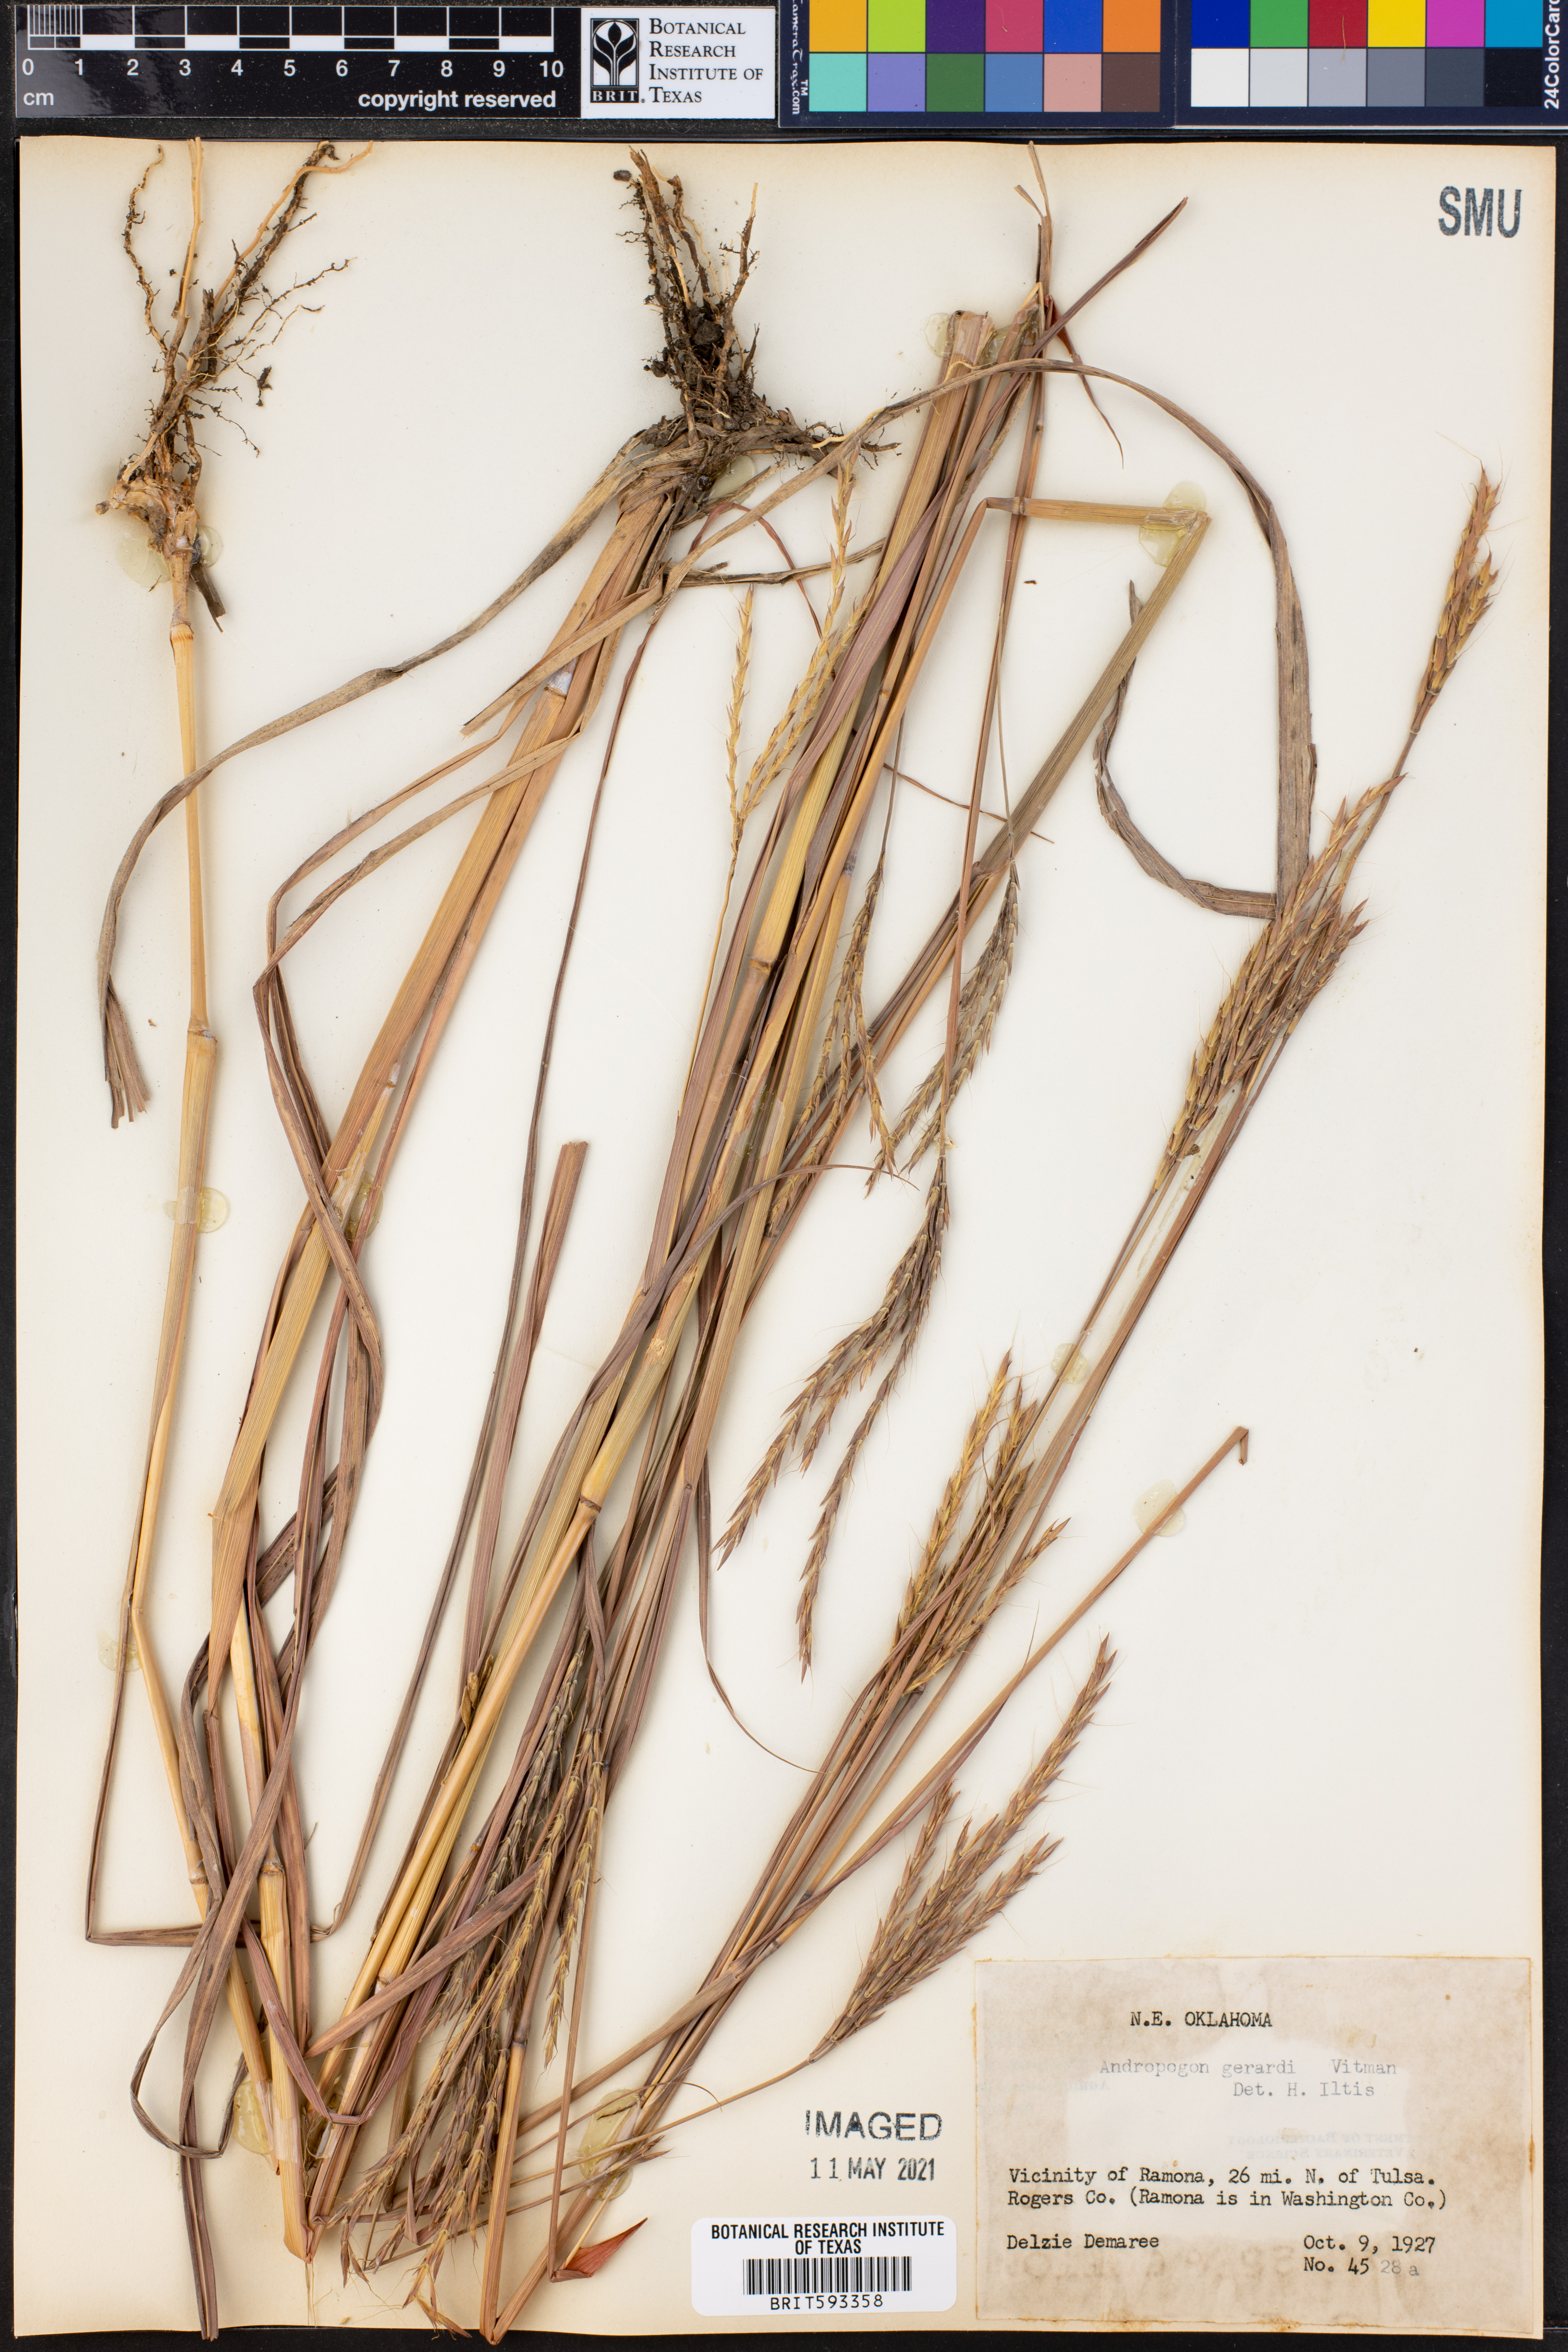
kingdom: Plantae
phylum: Tracheophyta
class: Liliopsida
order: Poales
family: Poaceae
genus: Andropogon
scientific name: Andropogon gerardi
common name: Big bluestem
